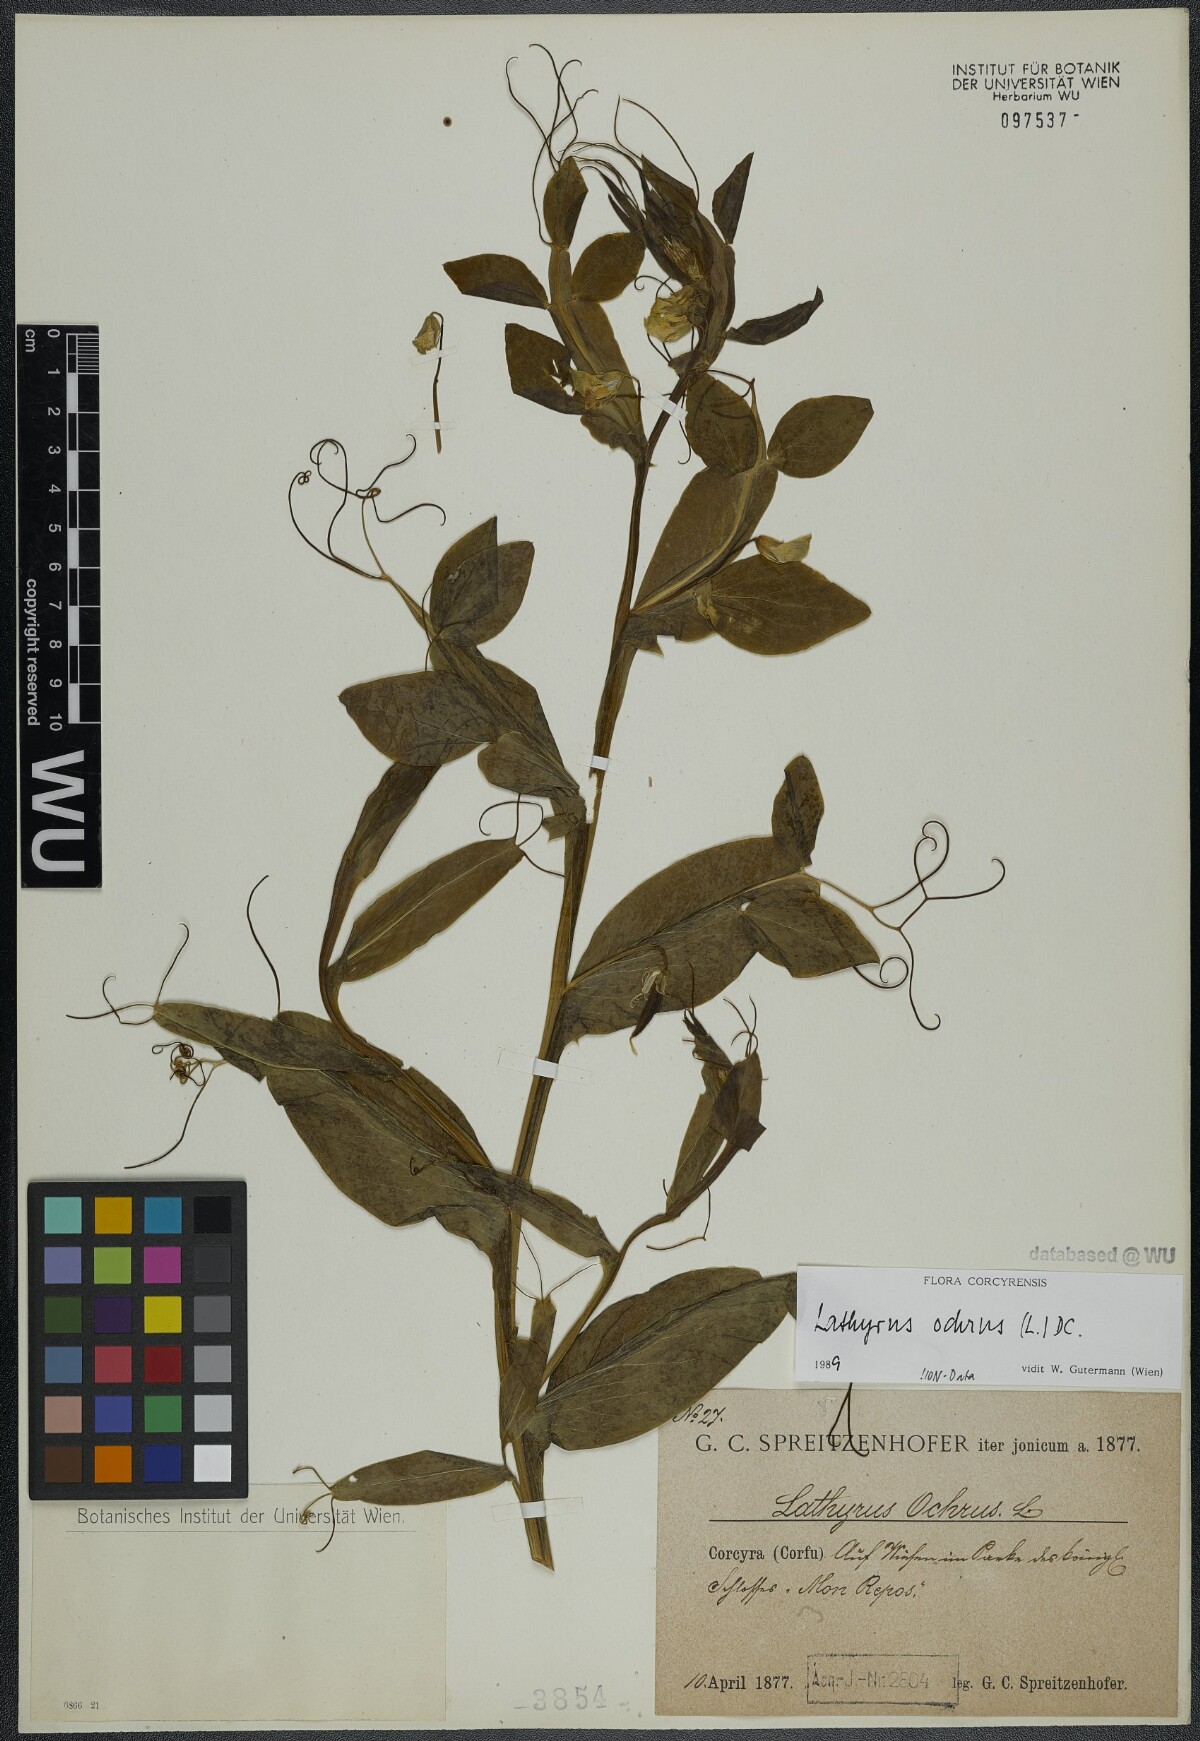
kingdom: Plantae
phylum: Tracheophyta
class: Magnoliopsida
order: Fabales
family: Fabaceae
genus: Lathyrus
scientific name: Lathyrus ochrus
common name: Winged vetchling
